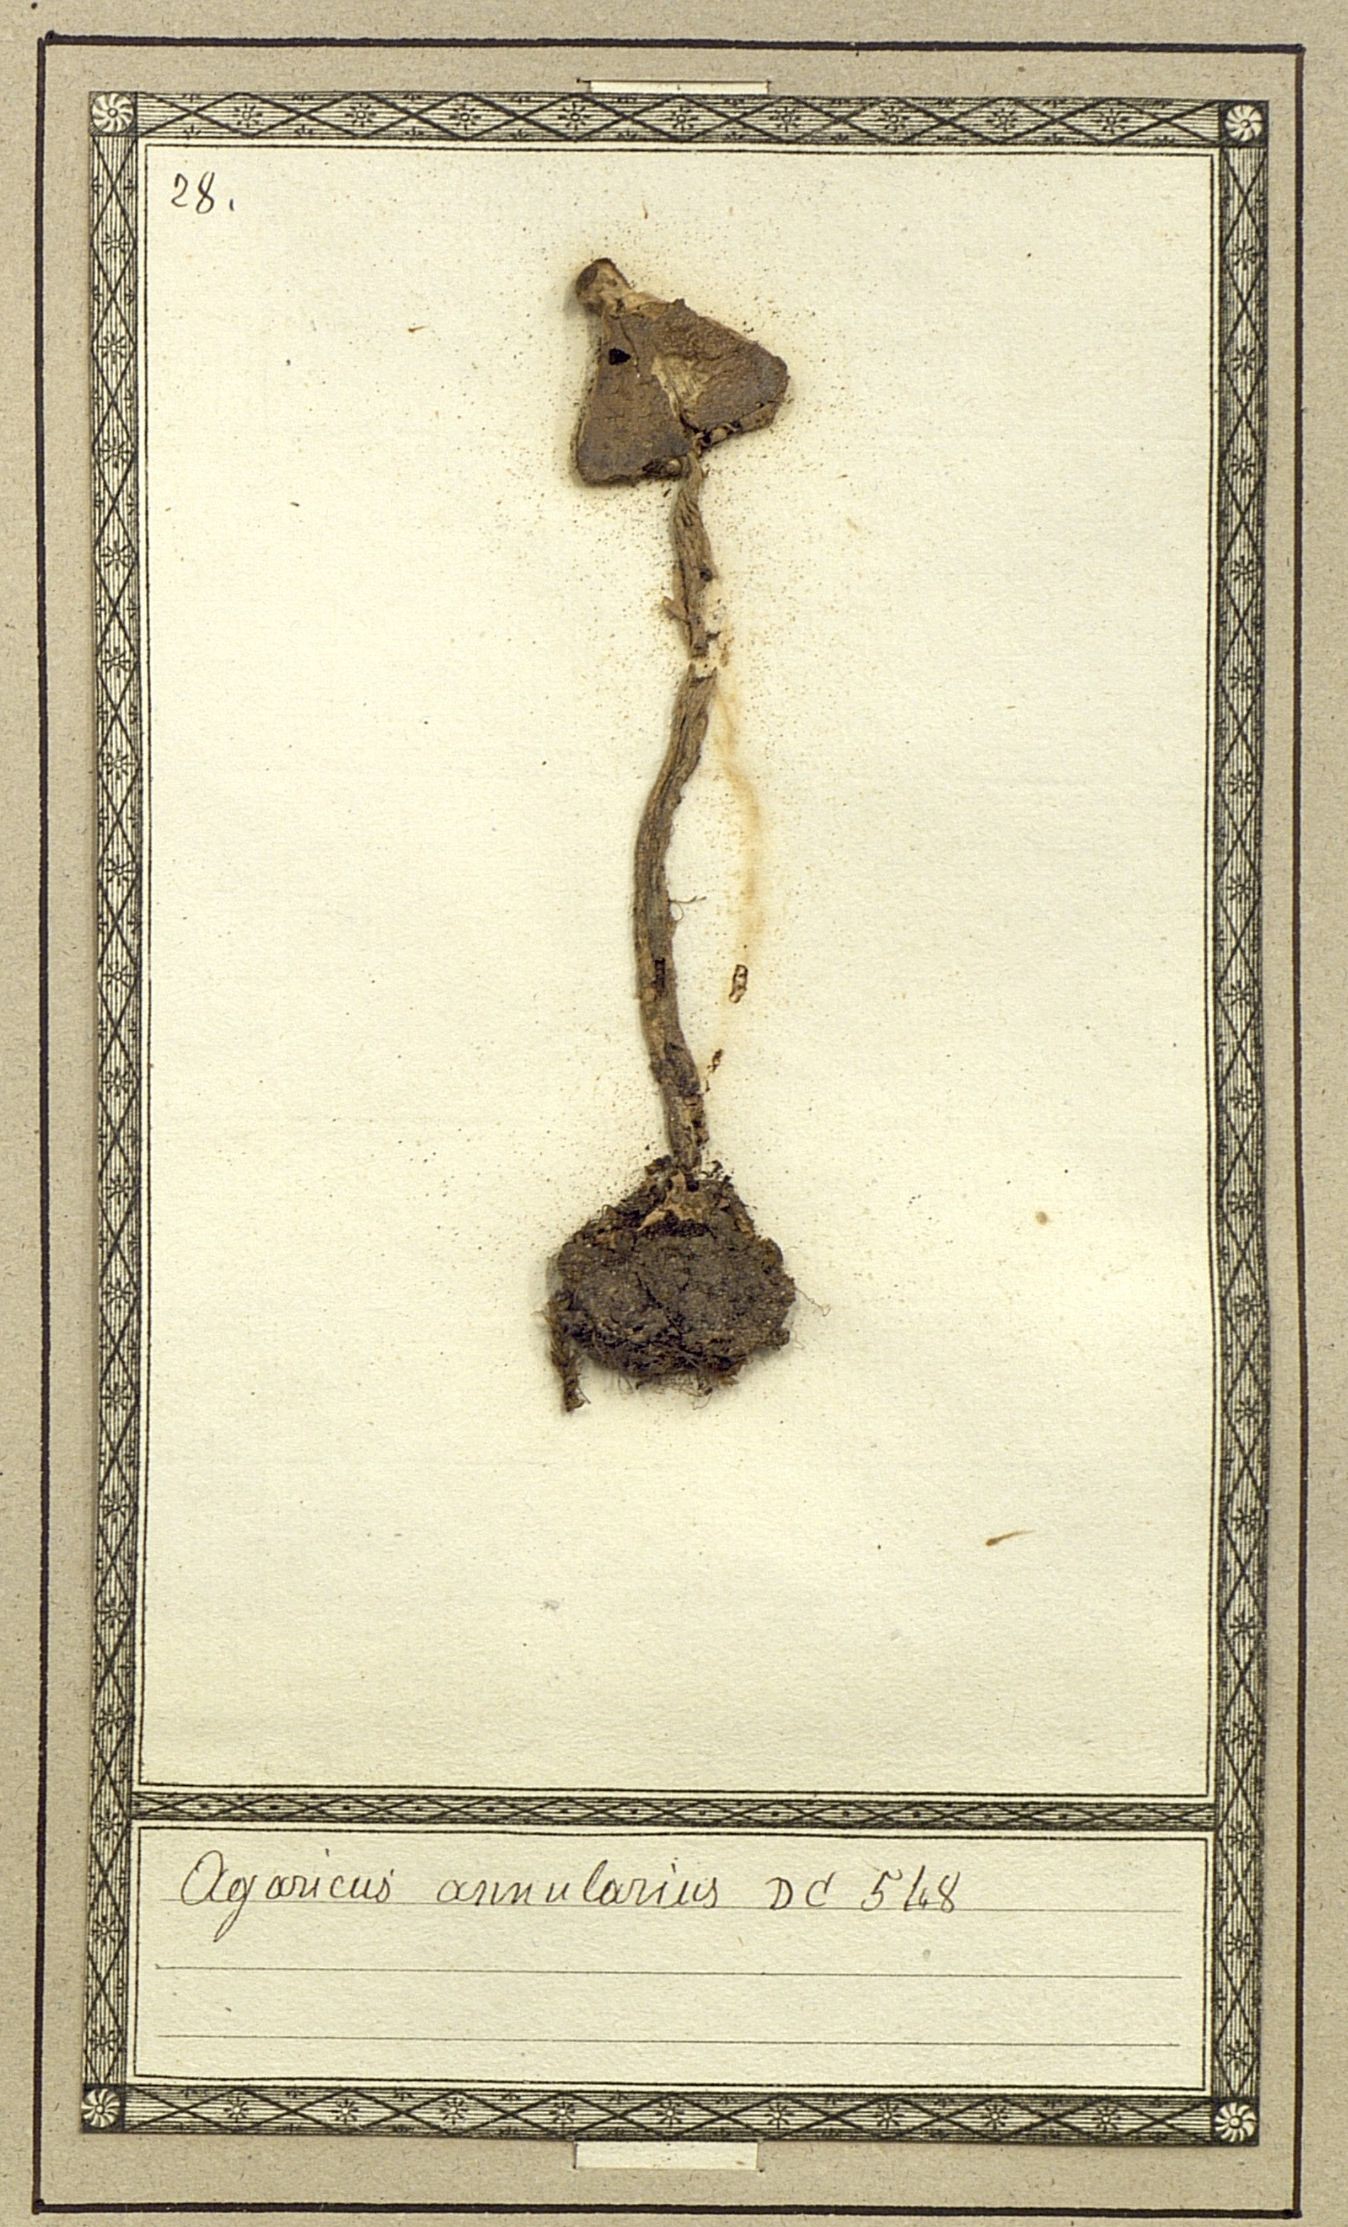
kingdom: Fungi
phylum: Basidiomycota
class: Agaricomycetes
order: Agaricales
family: Agaricaceae
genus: Agaricus
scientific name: Agaricus annulatus
